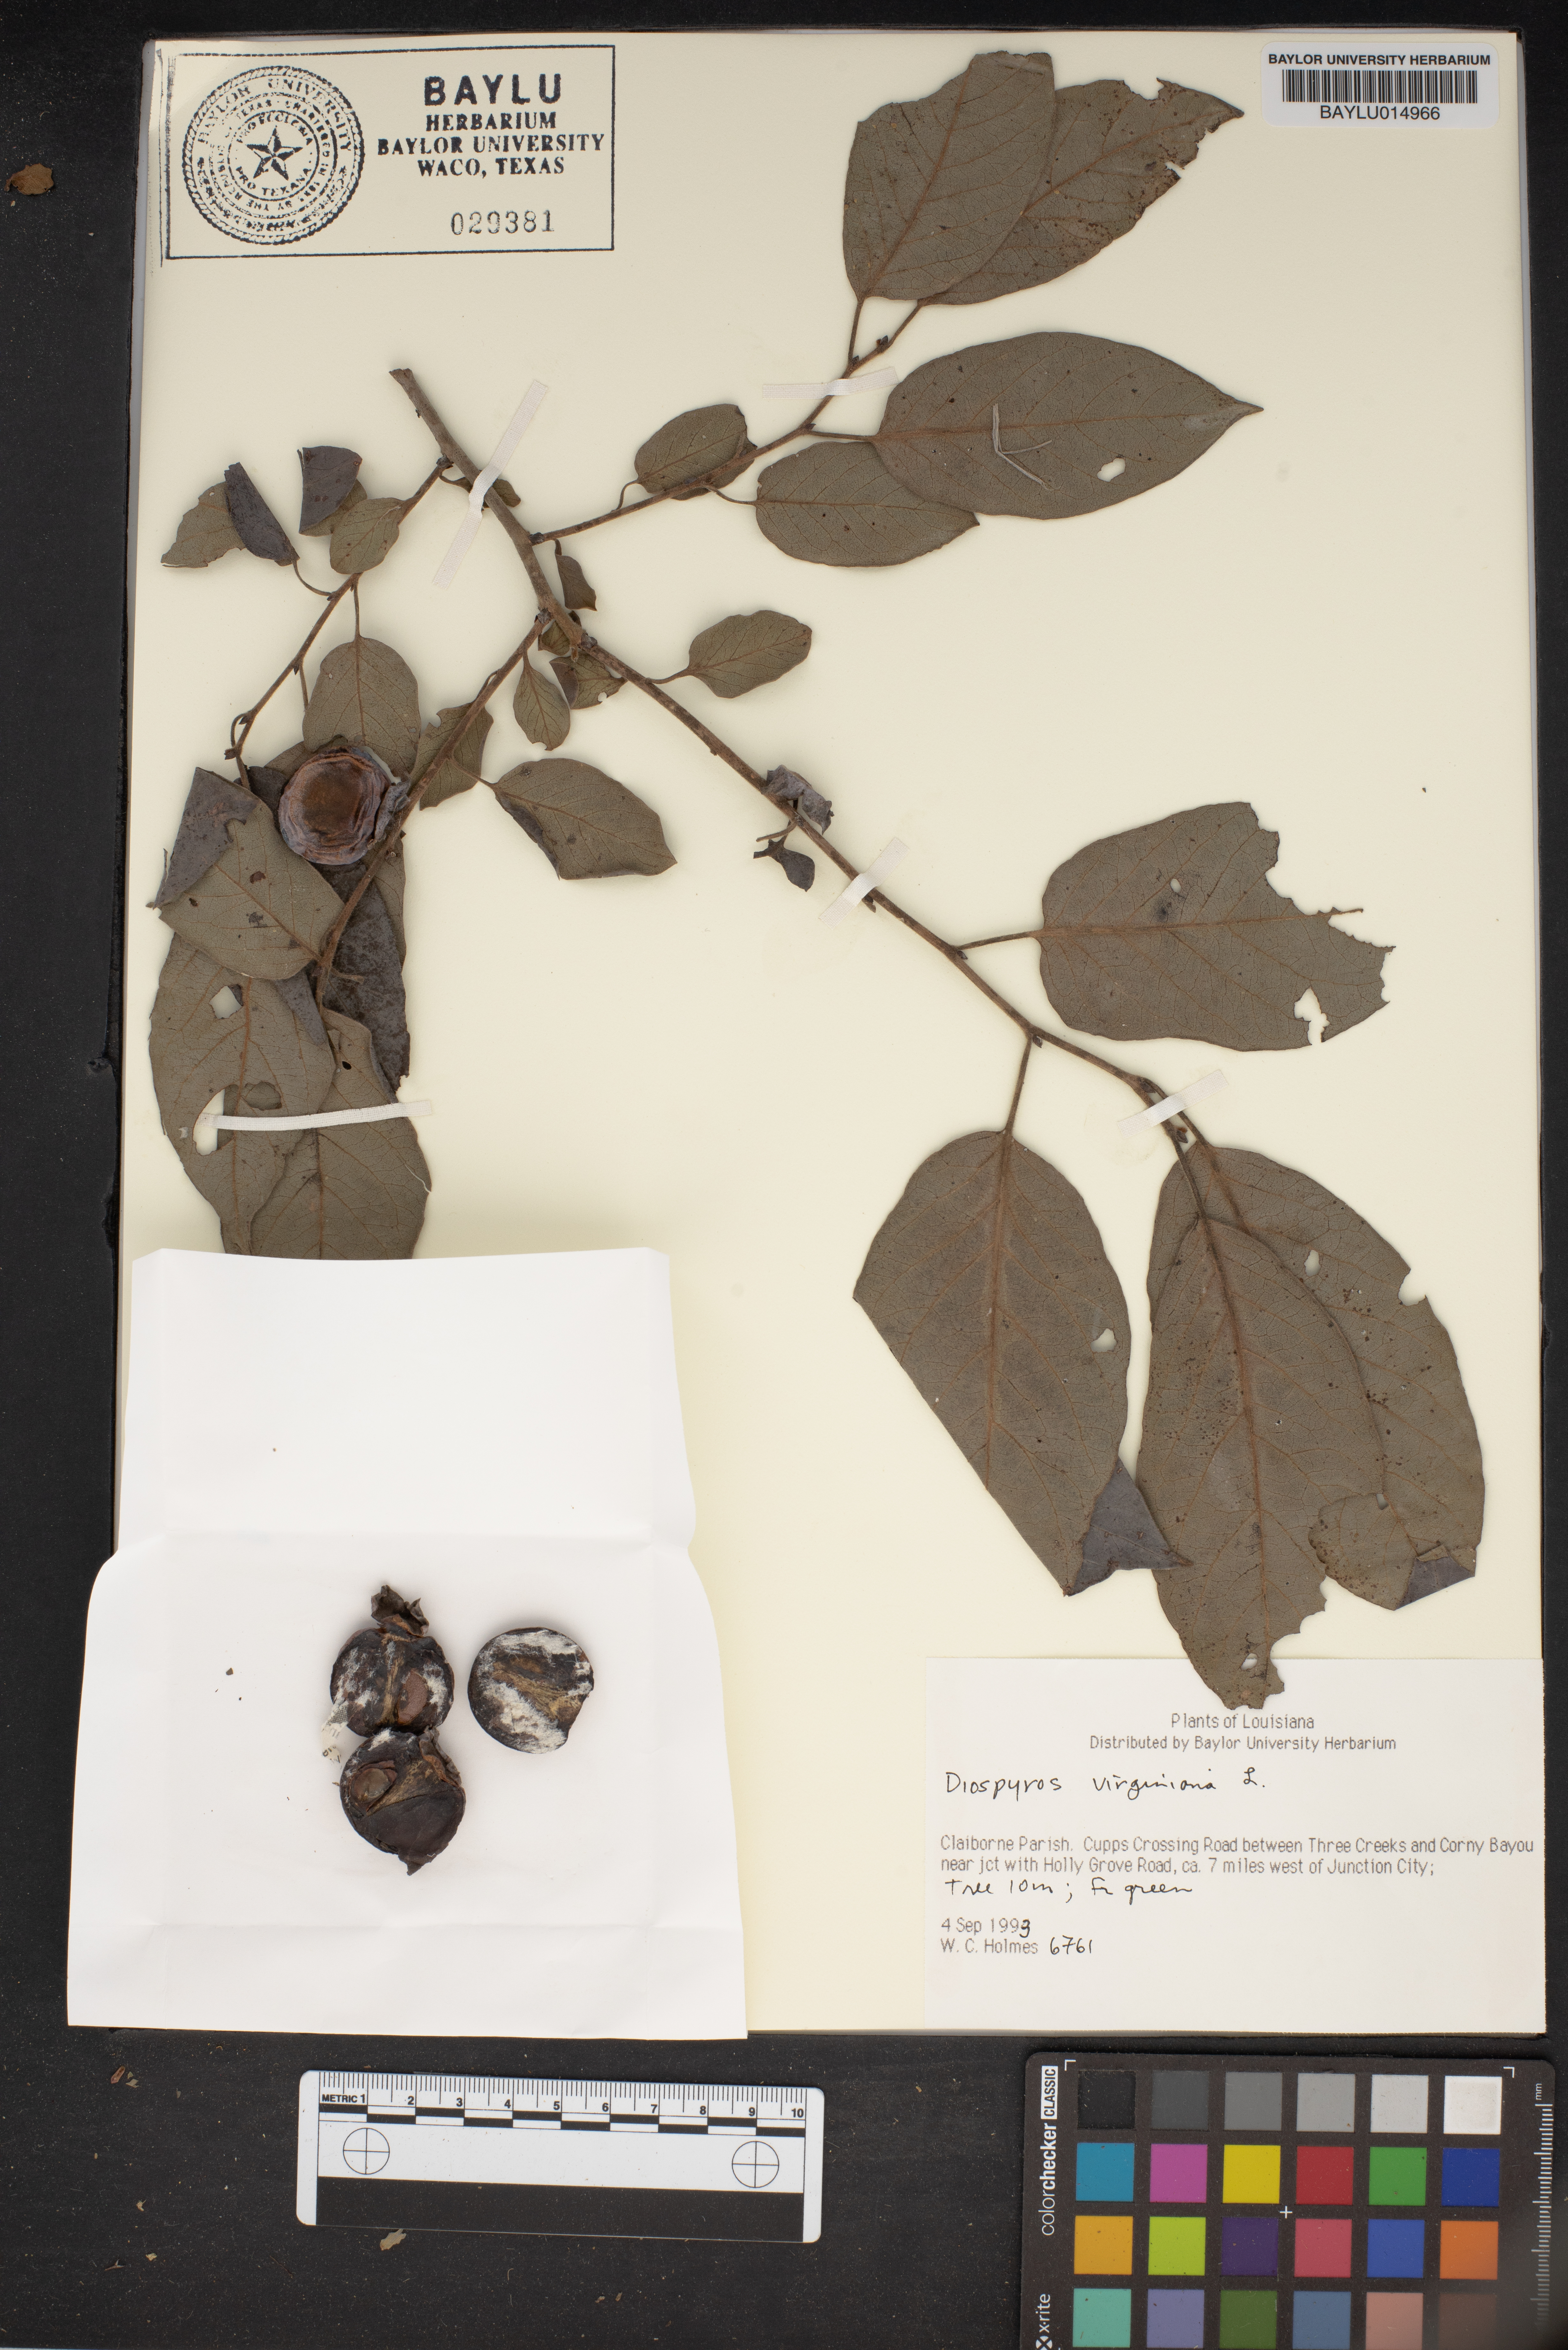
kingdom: Plantae
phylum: Tracheophyta
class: Magnoliopsida
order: Ericales
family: Ebenaceae
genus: Diospyros
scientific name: Diospyros virginiana
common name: Persimmon
